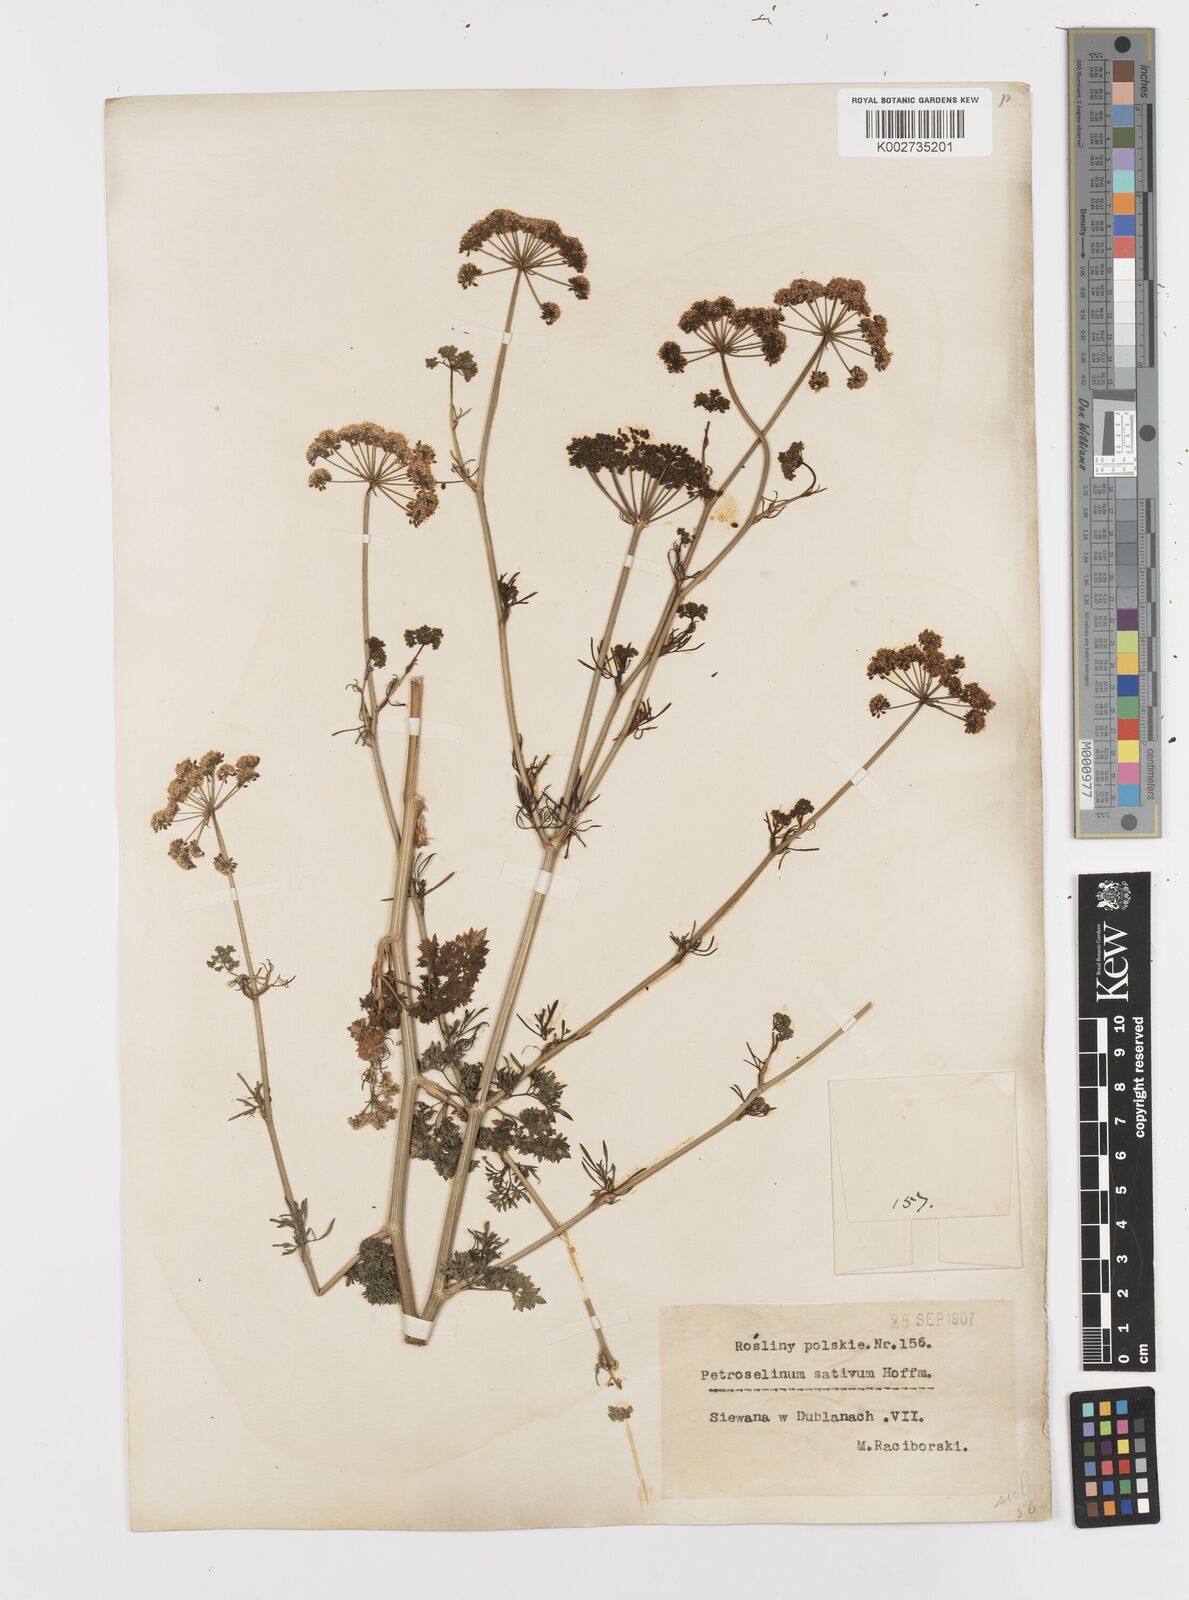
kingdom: Plantae
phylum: Tracheophyta
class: Magnoliopsida
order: Apiales
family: Apiaceae
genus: Petroselinum
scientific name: Petroselinum crispum
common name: Parsley
